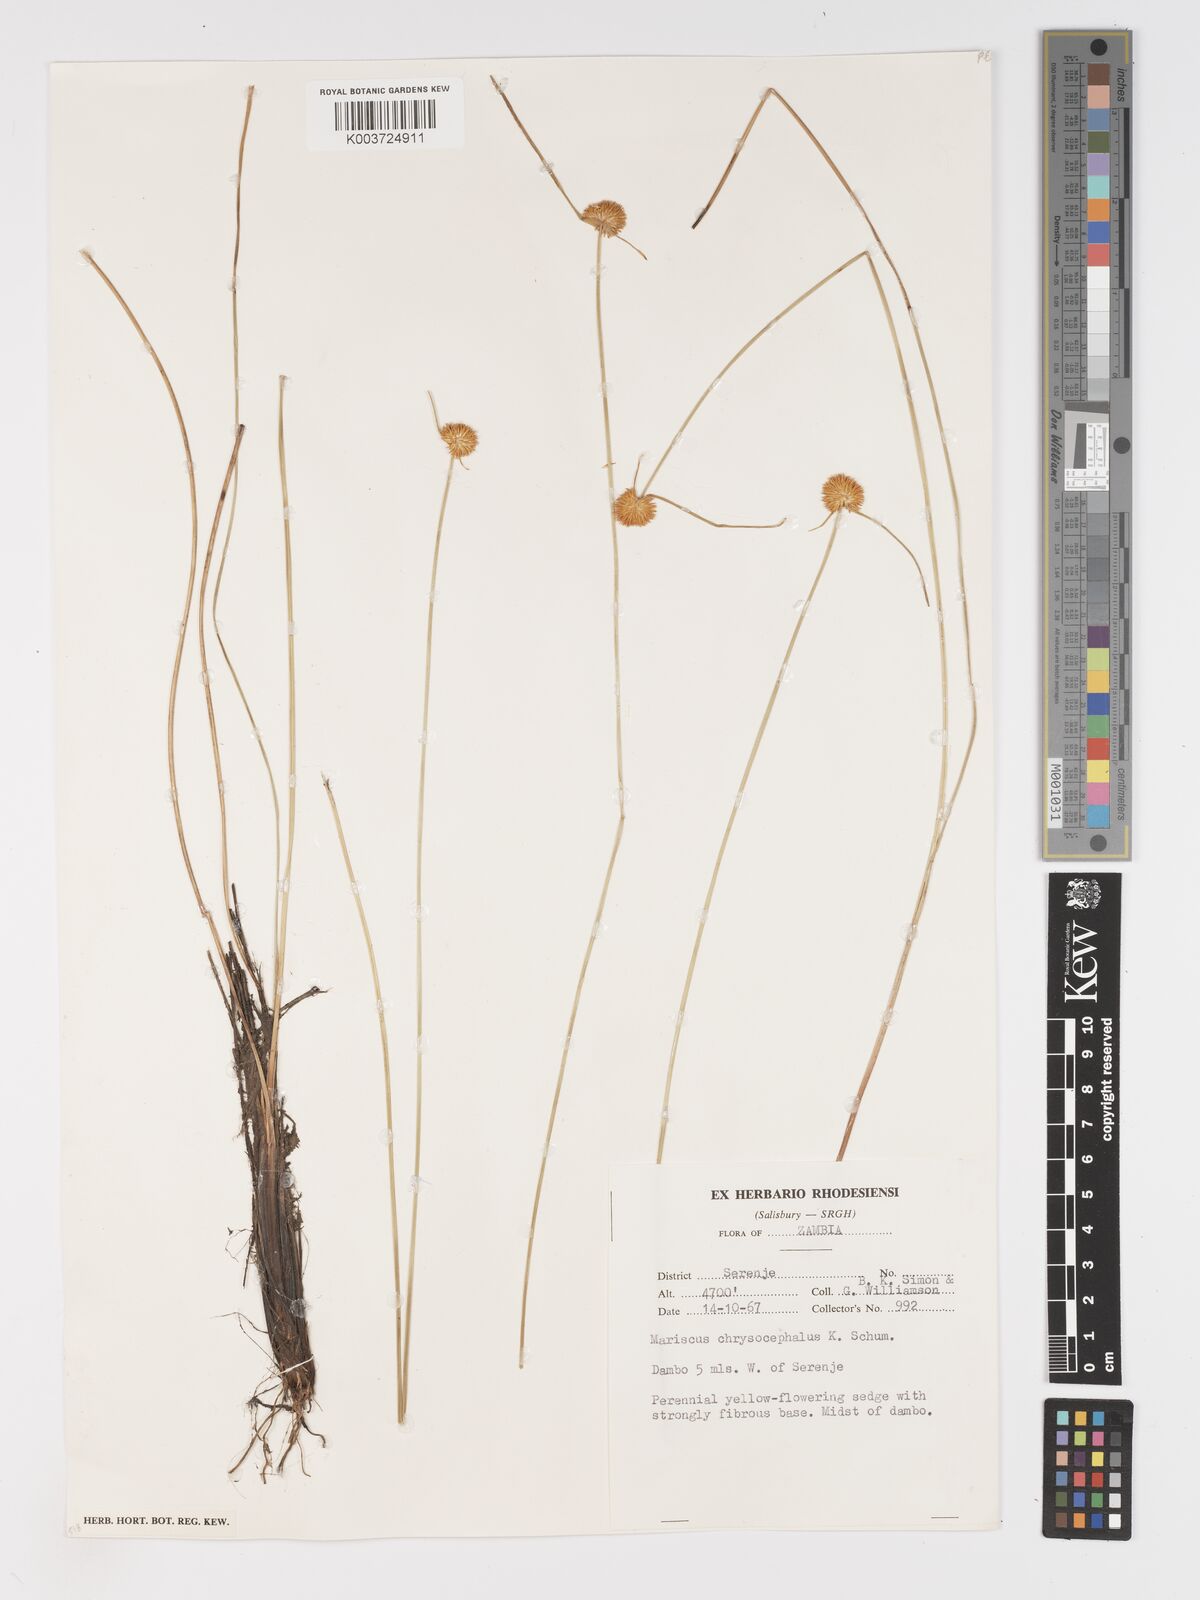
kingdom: Plantae
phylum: Tracheophyta
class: Liliopsida
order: Poales
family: Cyperaceae
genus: Cyperus
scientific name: Cyperus chrysocephalus
